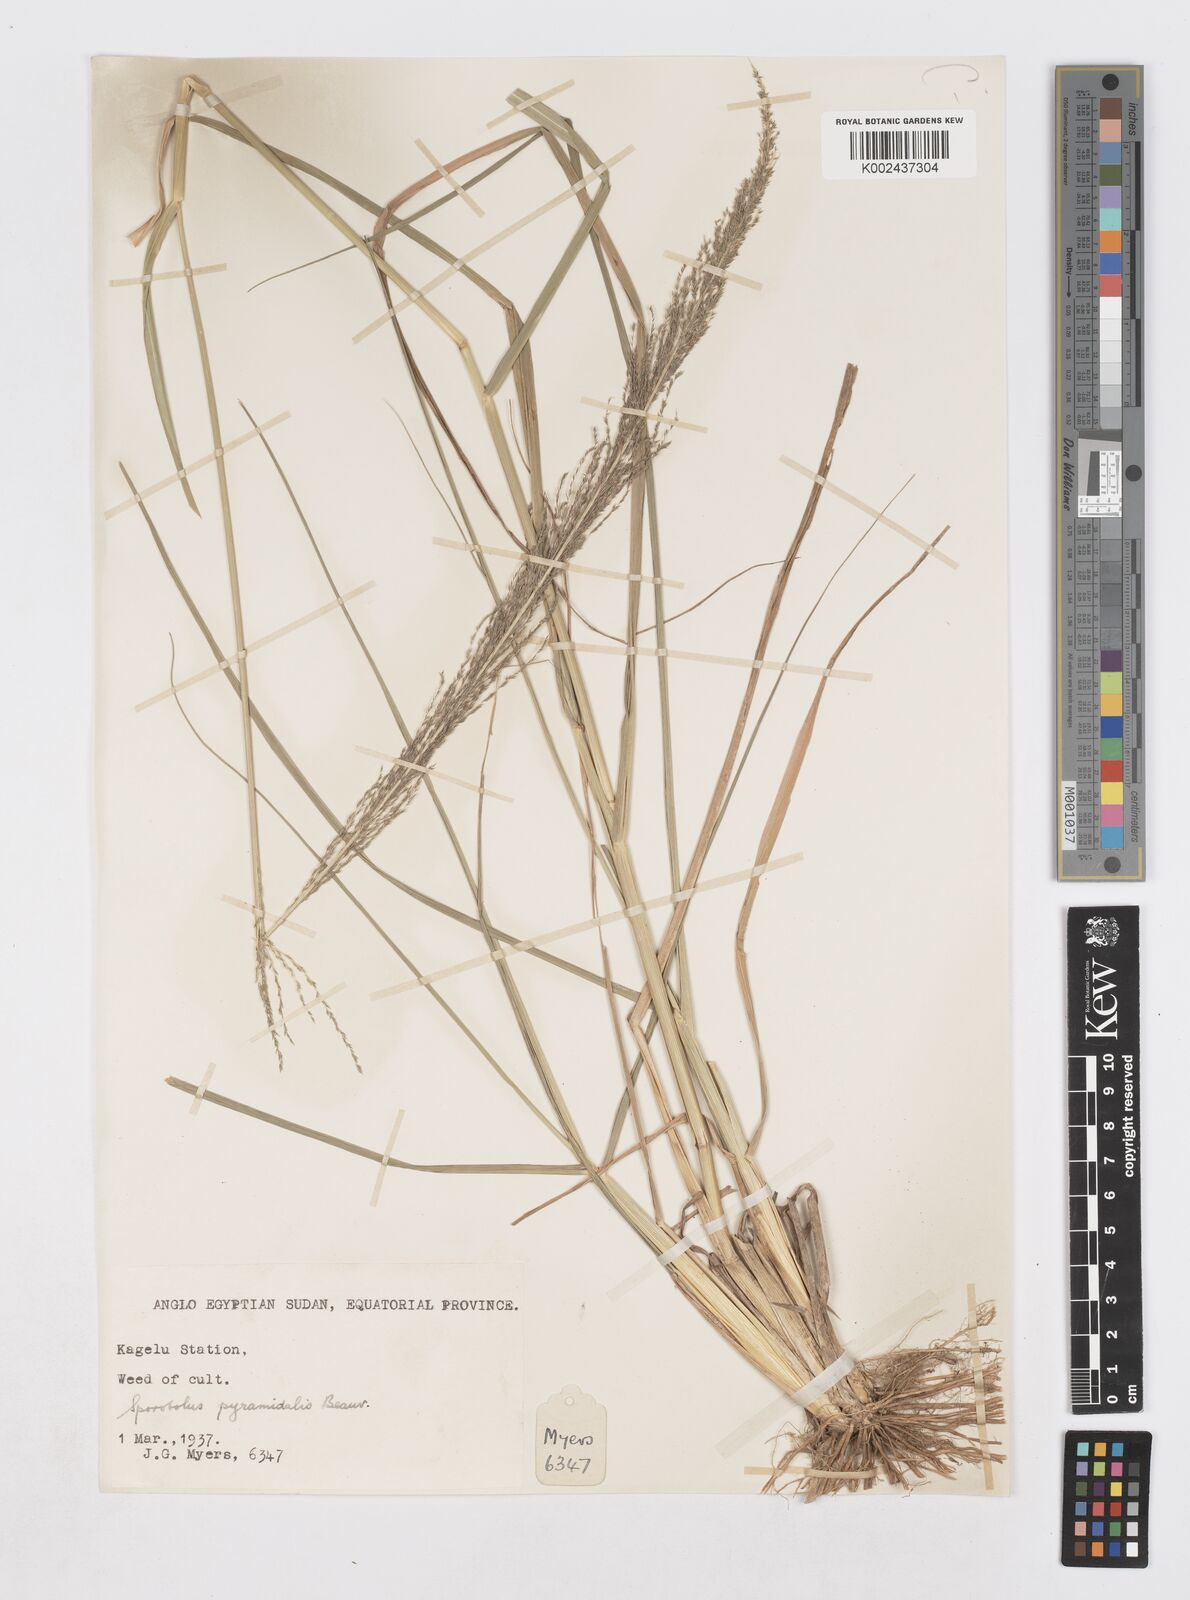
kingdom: Plantae
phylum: Tracheophyta
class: Liliopsida
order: Poales
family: Poaceae
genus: Sporobolus
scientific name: Sporobolus pyramidalis
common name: West indian dropseed
